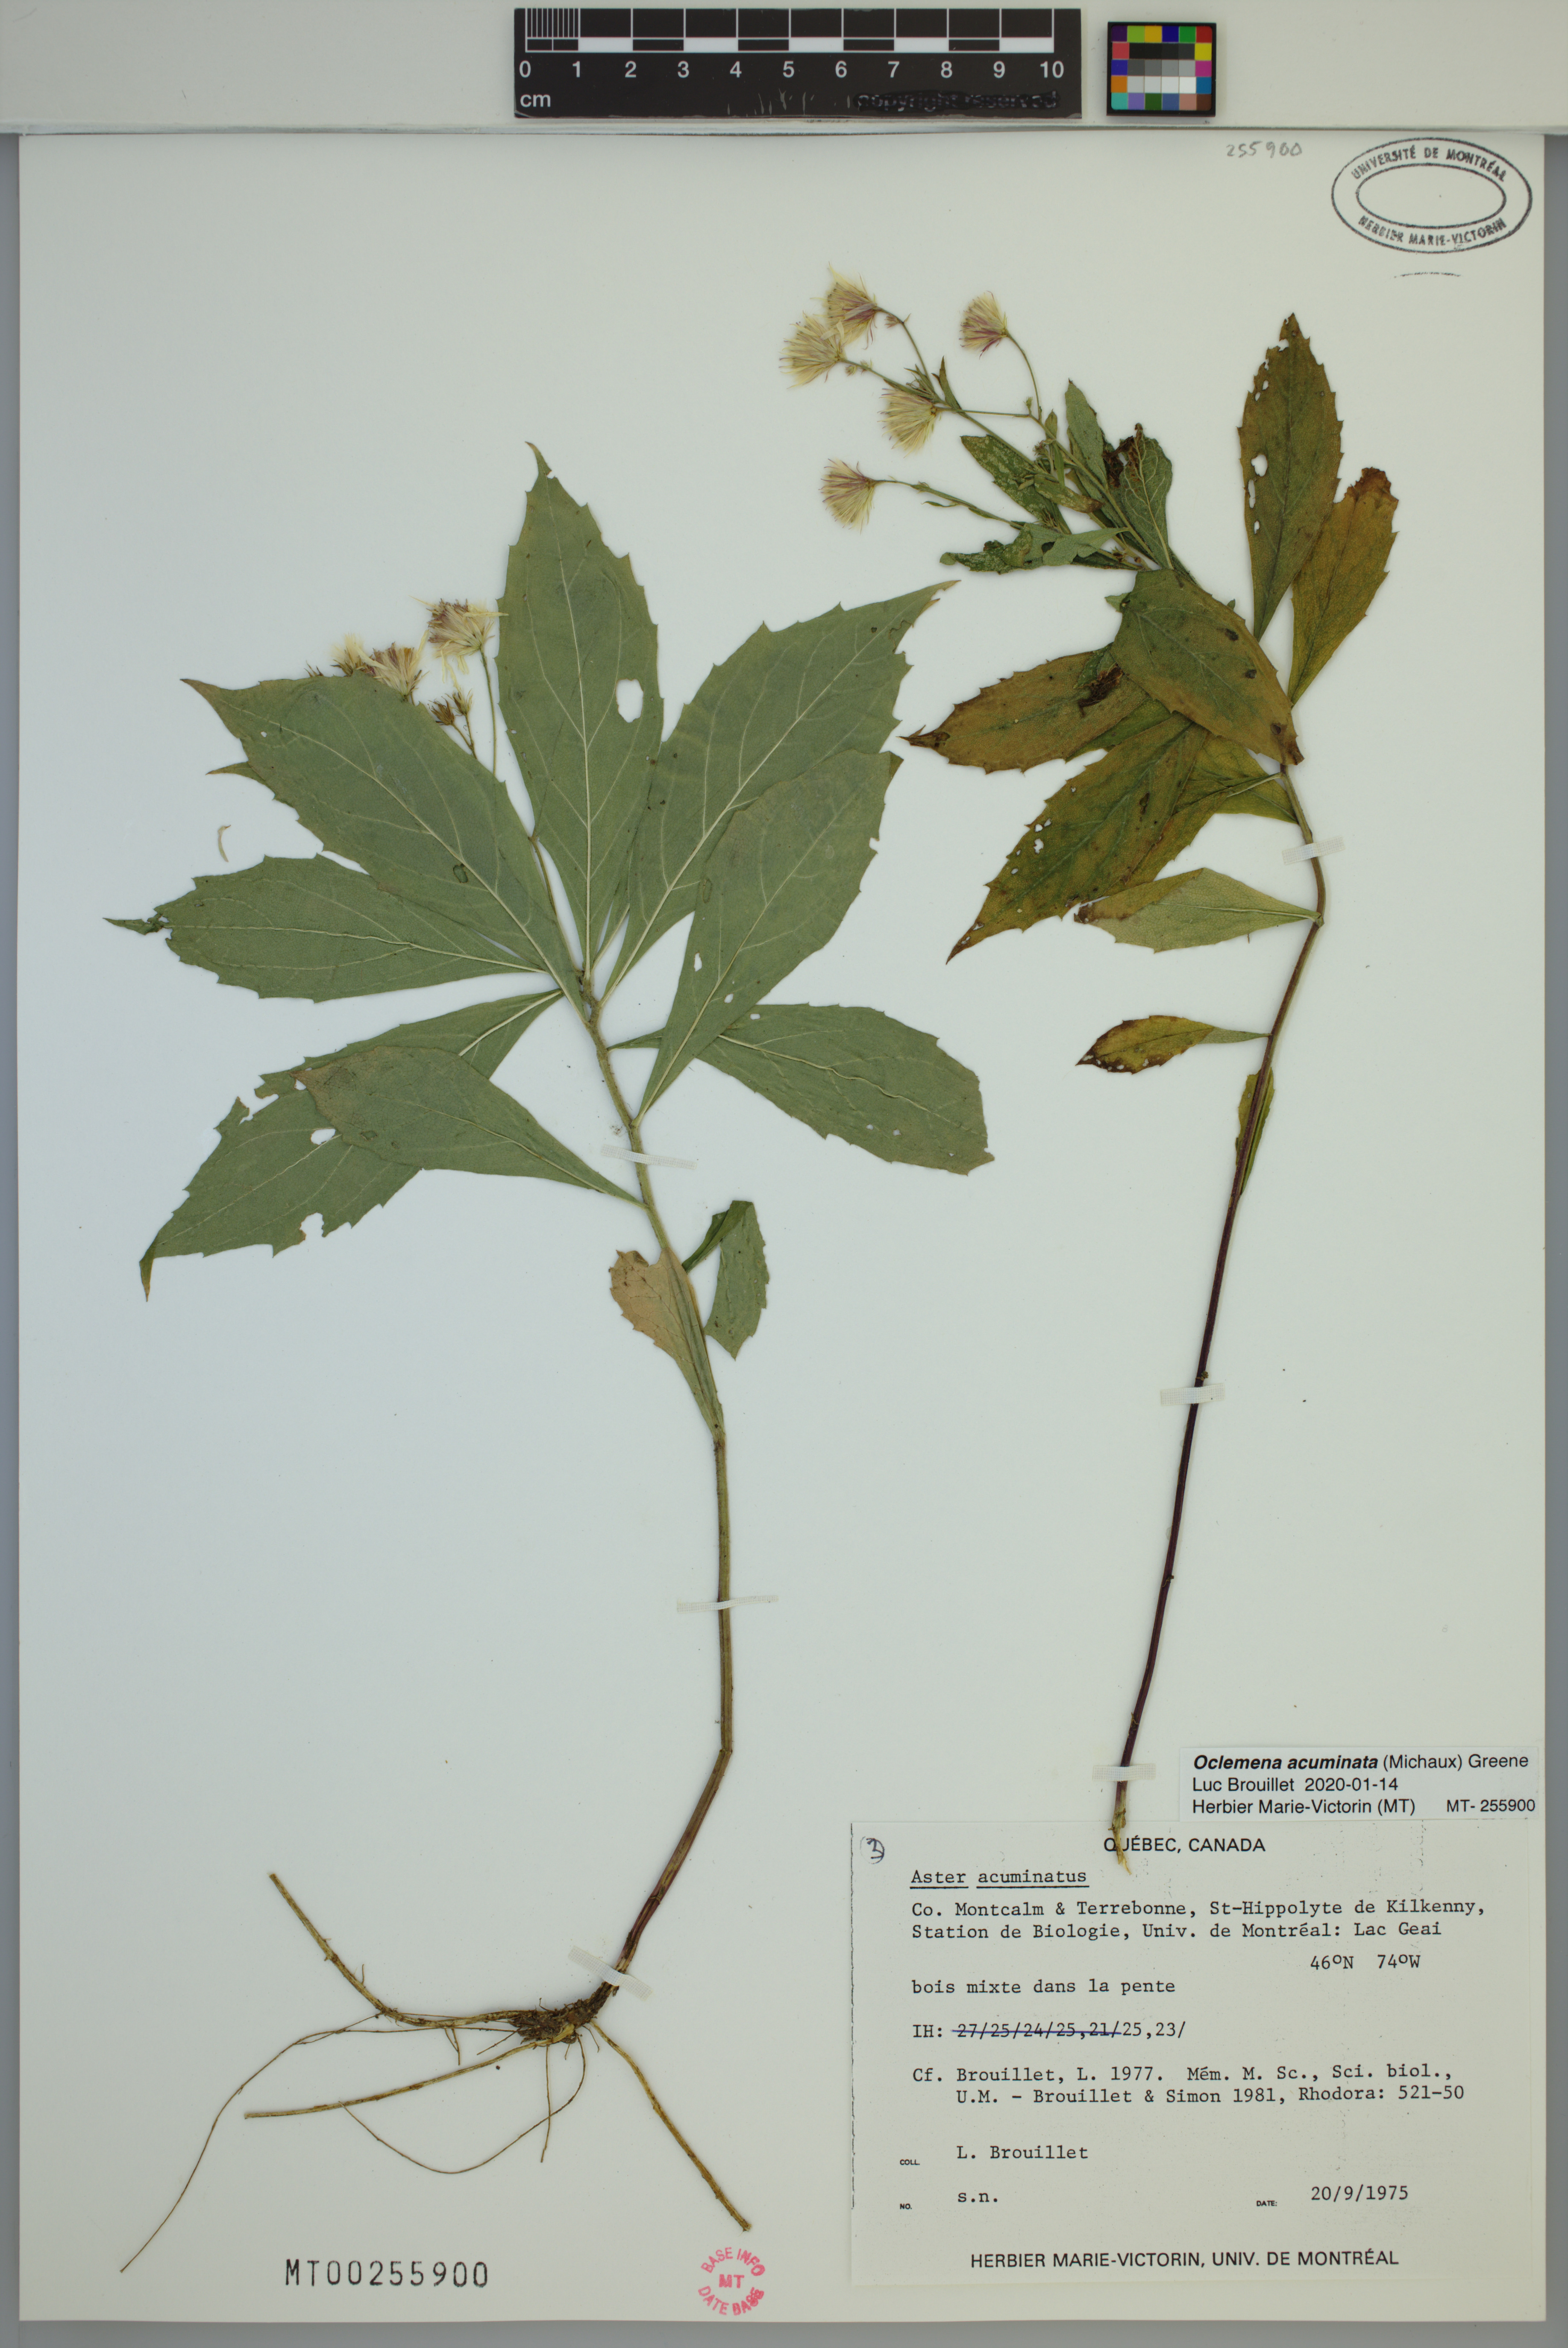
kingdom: Plantae
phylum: Tracheophyta
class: Magnoliopsida
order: Asterales
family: Asteraceae
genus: Oclemena
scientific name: Oclemena acuminata
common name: Mountain aster
